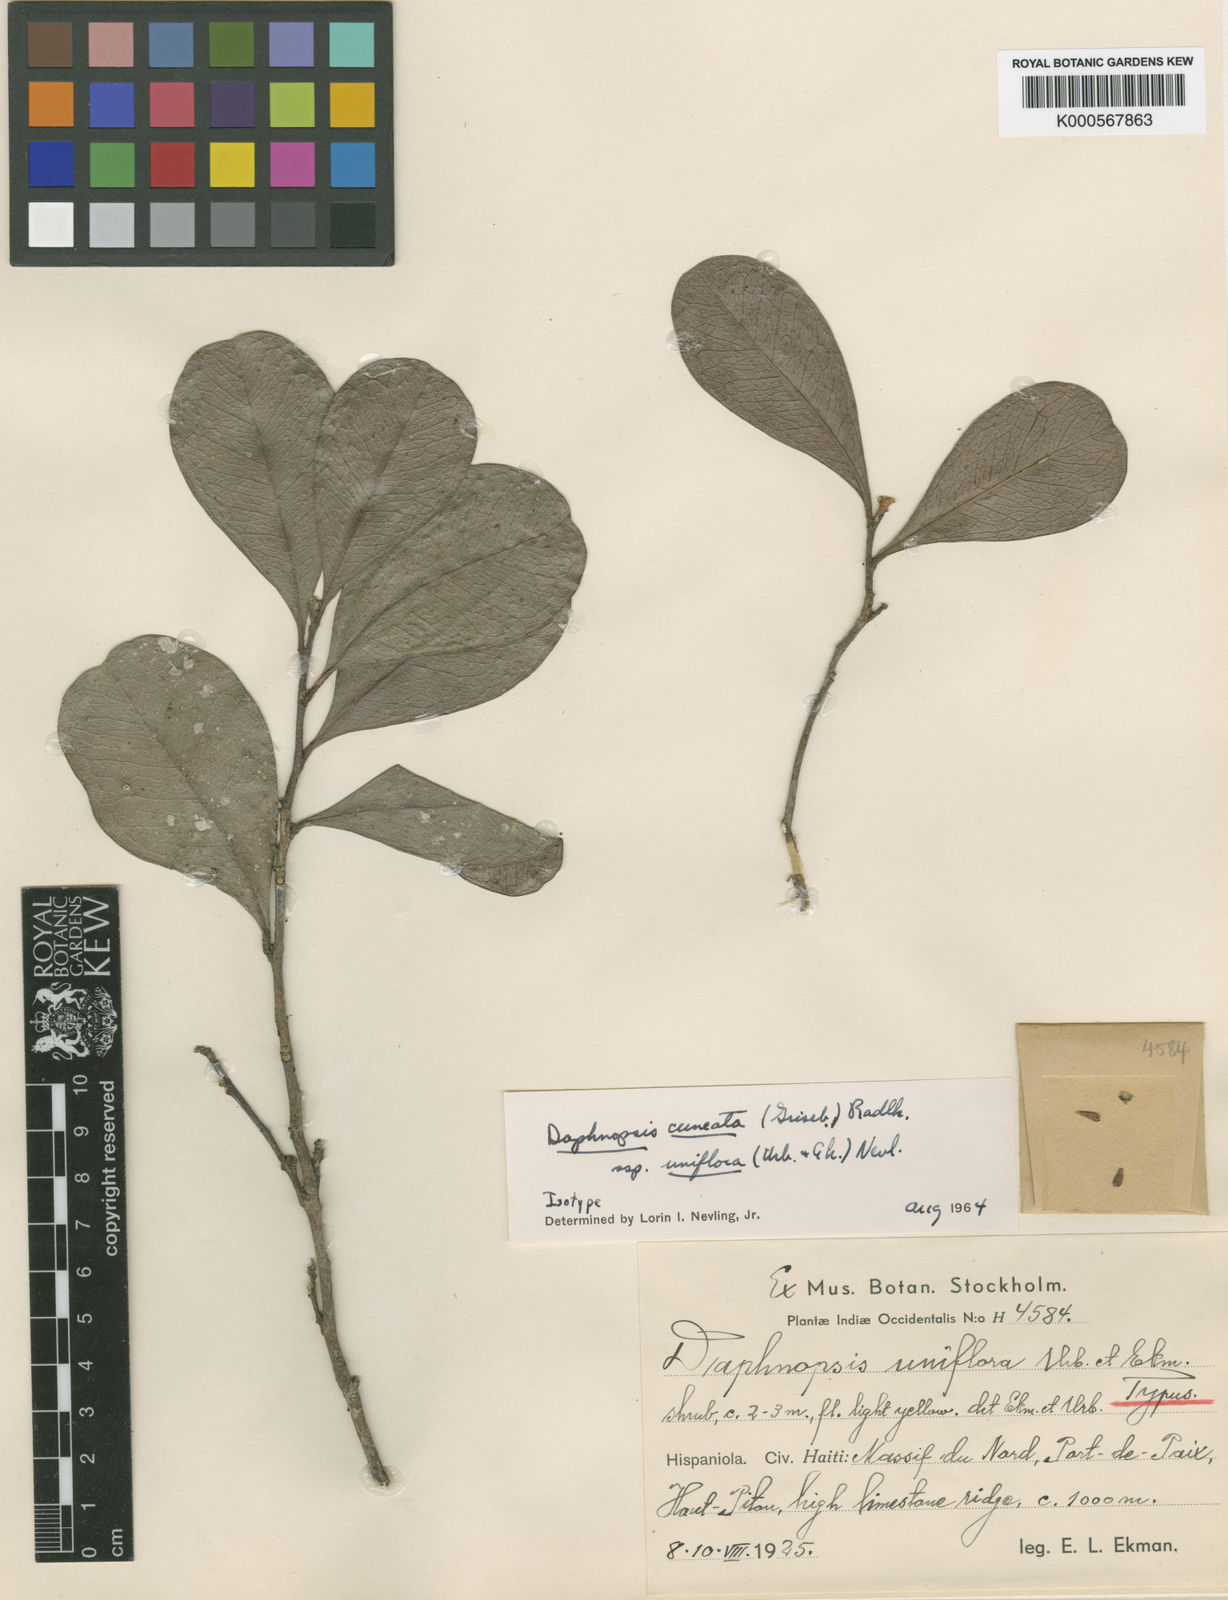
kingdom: Plantae
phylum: Tracheophyta
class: Magnoliopsida
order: Malvales
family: Thymelaeaceae
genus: Daphnopsis
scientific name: Daphnopsis cuneata
